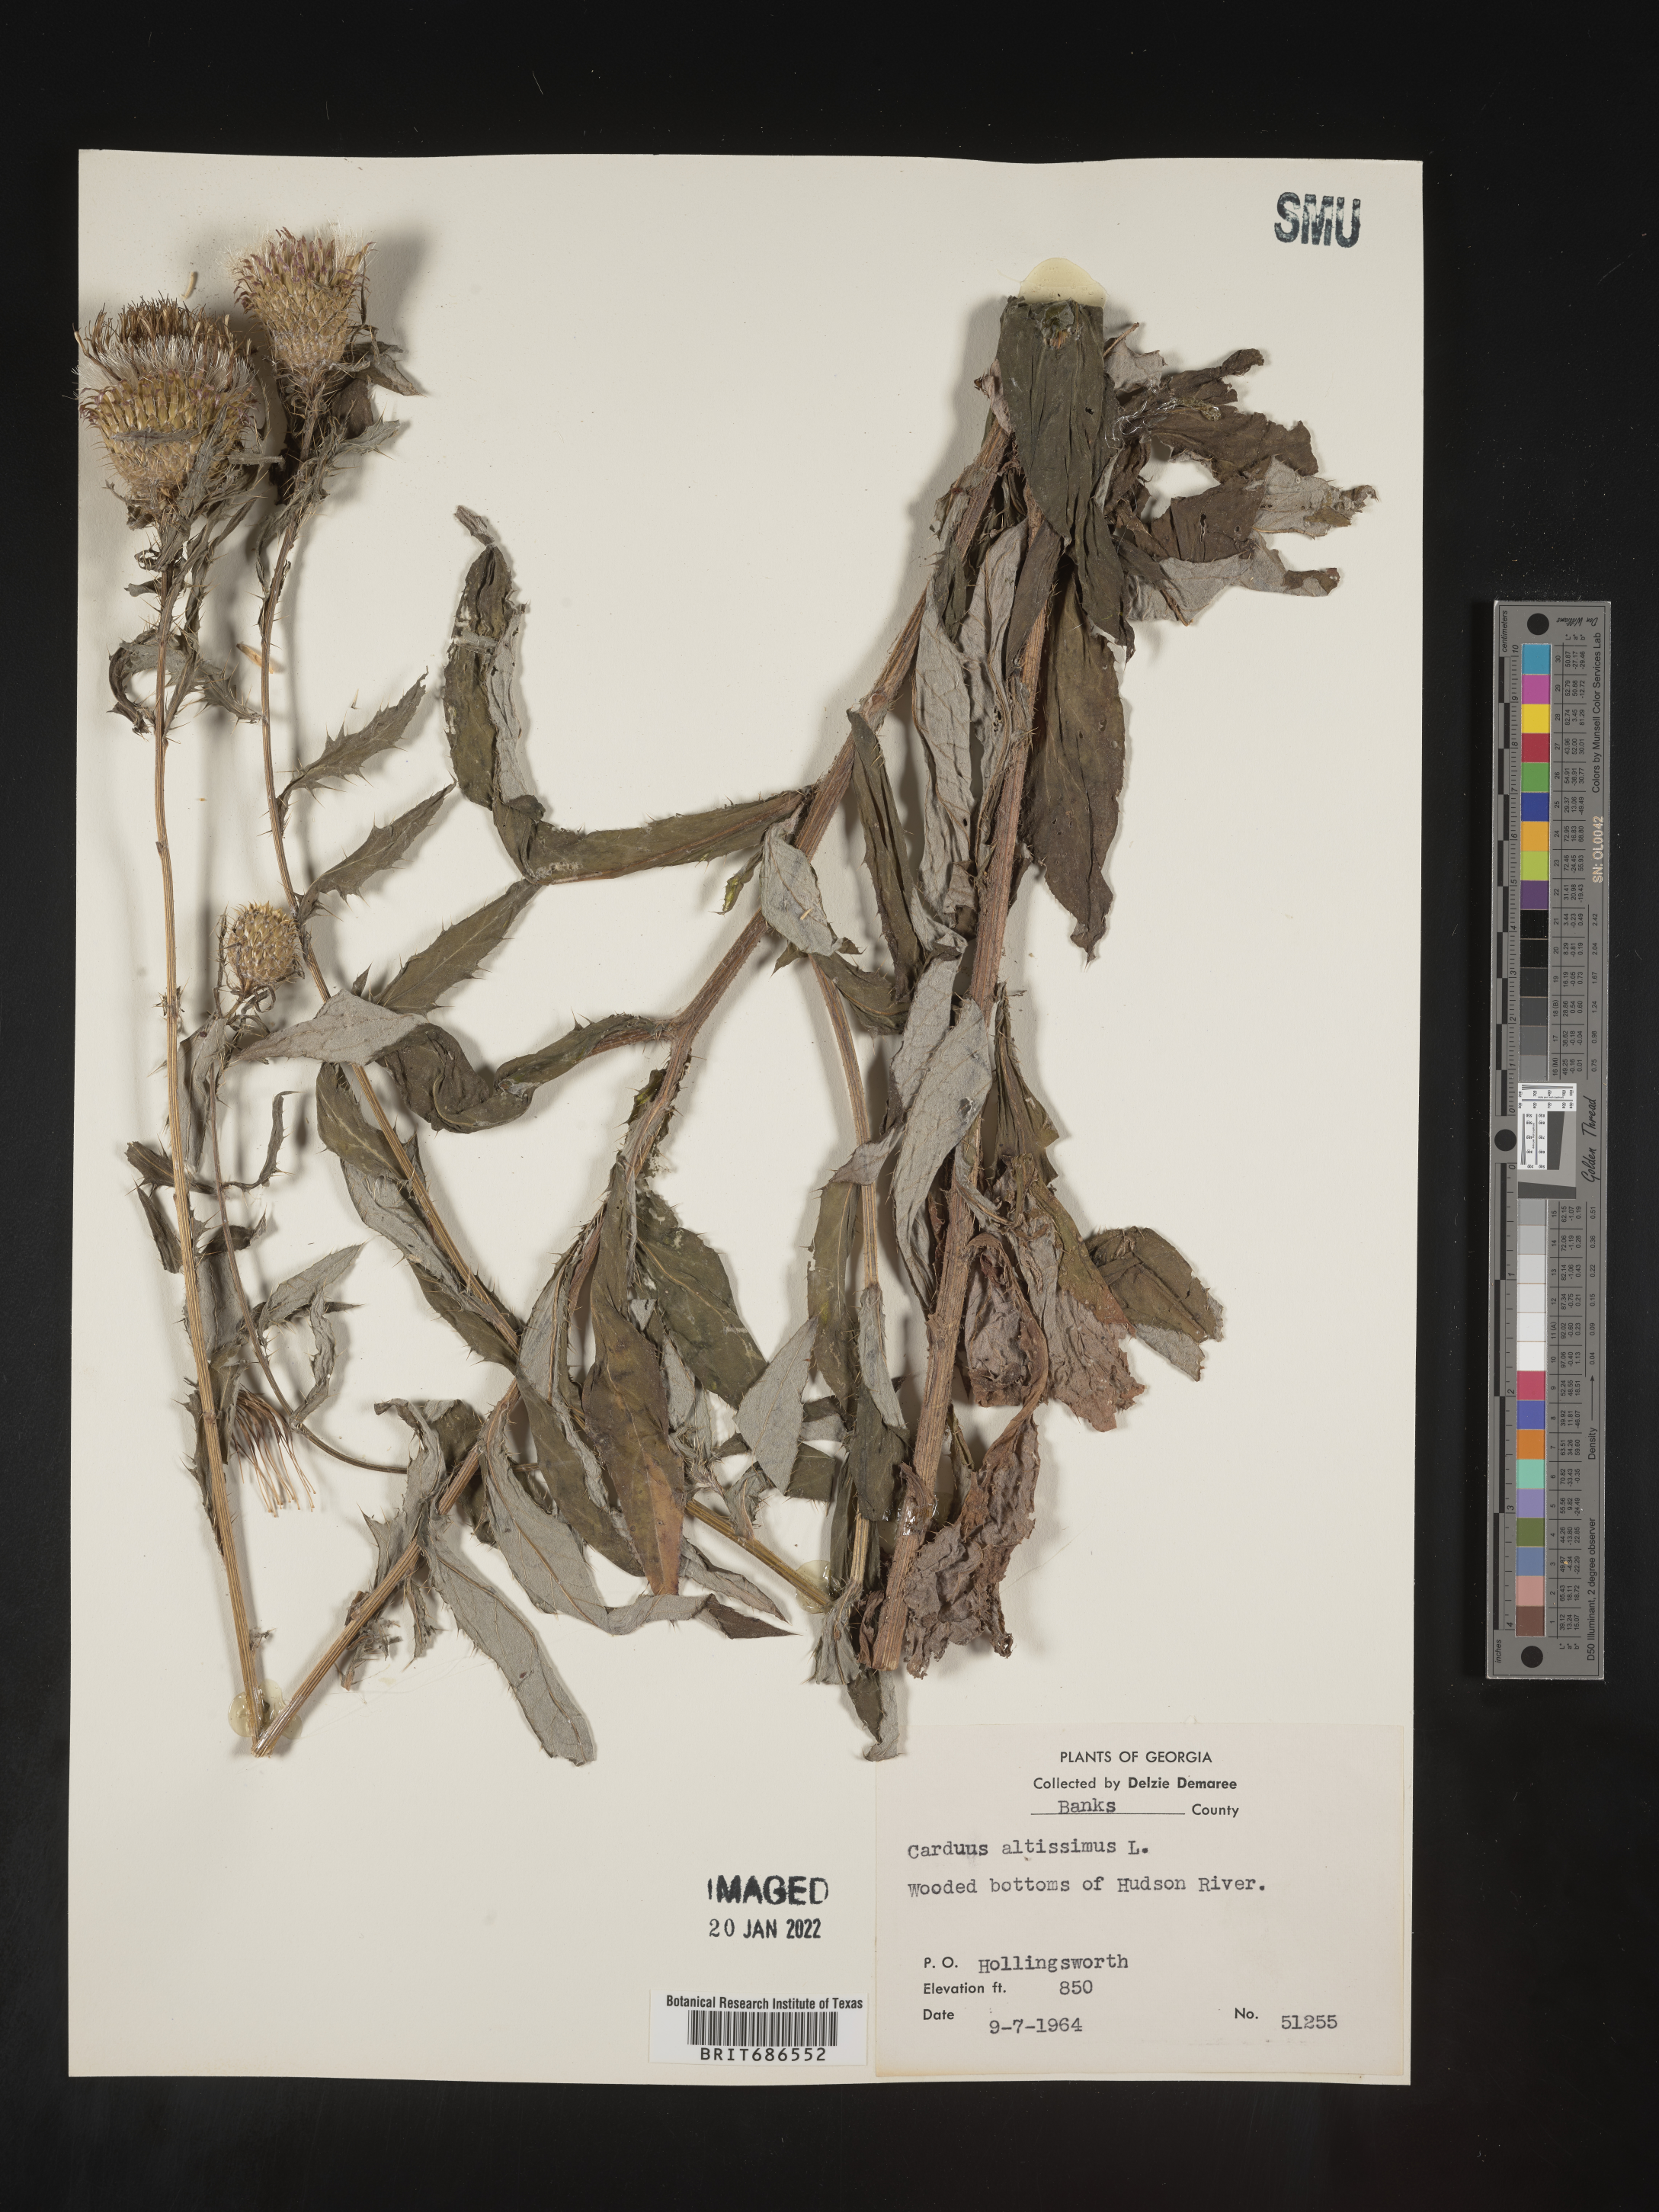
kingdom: Plantae
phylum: Tracheophyta
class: Magnoliopsida
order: Asterales
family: Asteraceae
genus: Cirsium
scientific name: Cirsium palustre
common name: Marsh thistle
